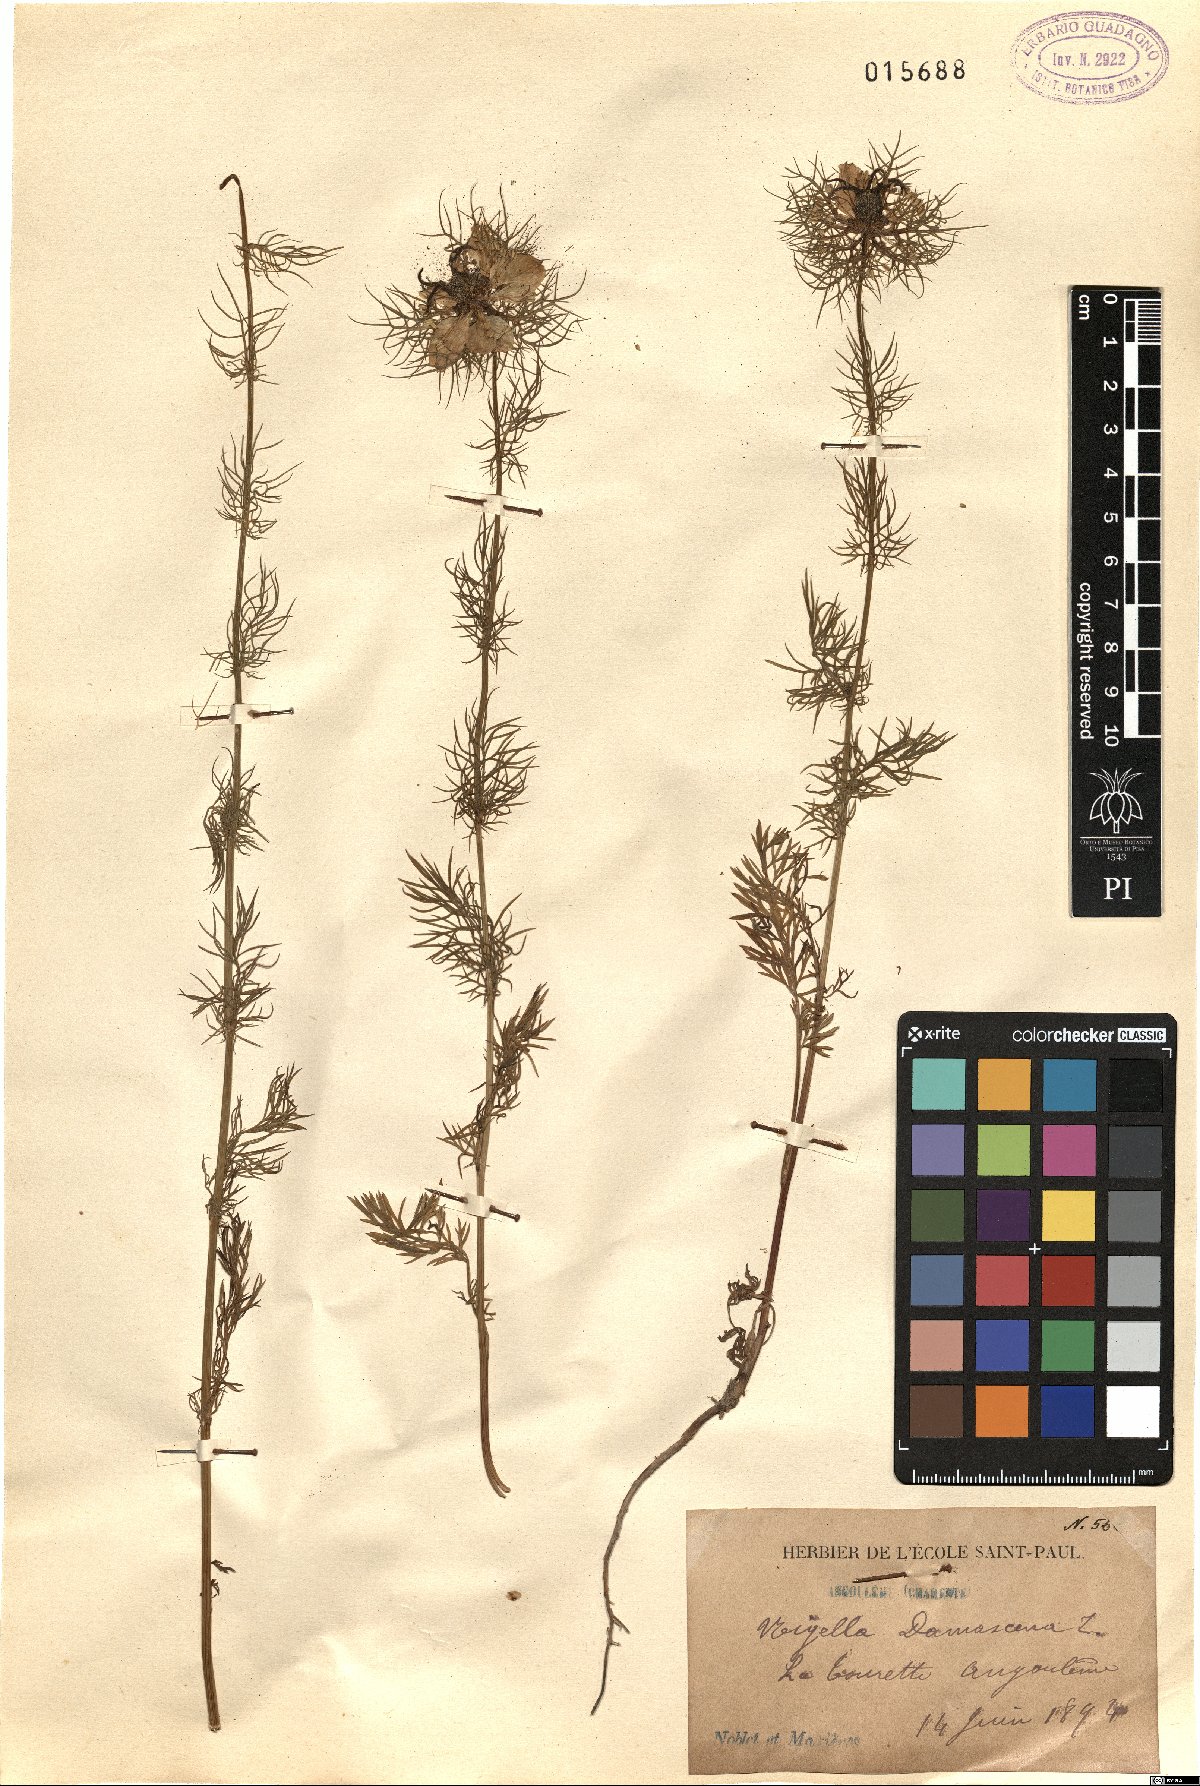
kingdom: Plantae
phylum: Tracheophyta
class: Magnoliopsida
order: Ranunculales
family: Ranunculaceae
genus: Nigella
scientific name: Nigella damascena
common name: Love-in-a-mist
